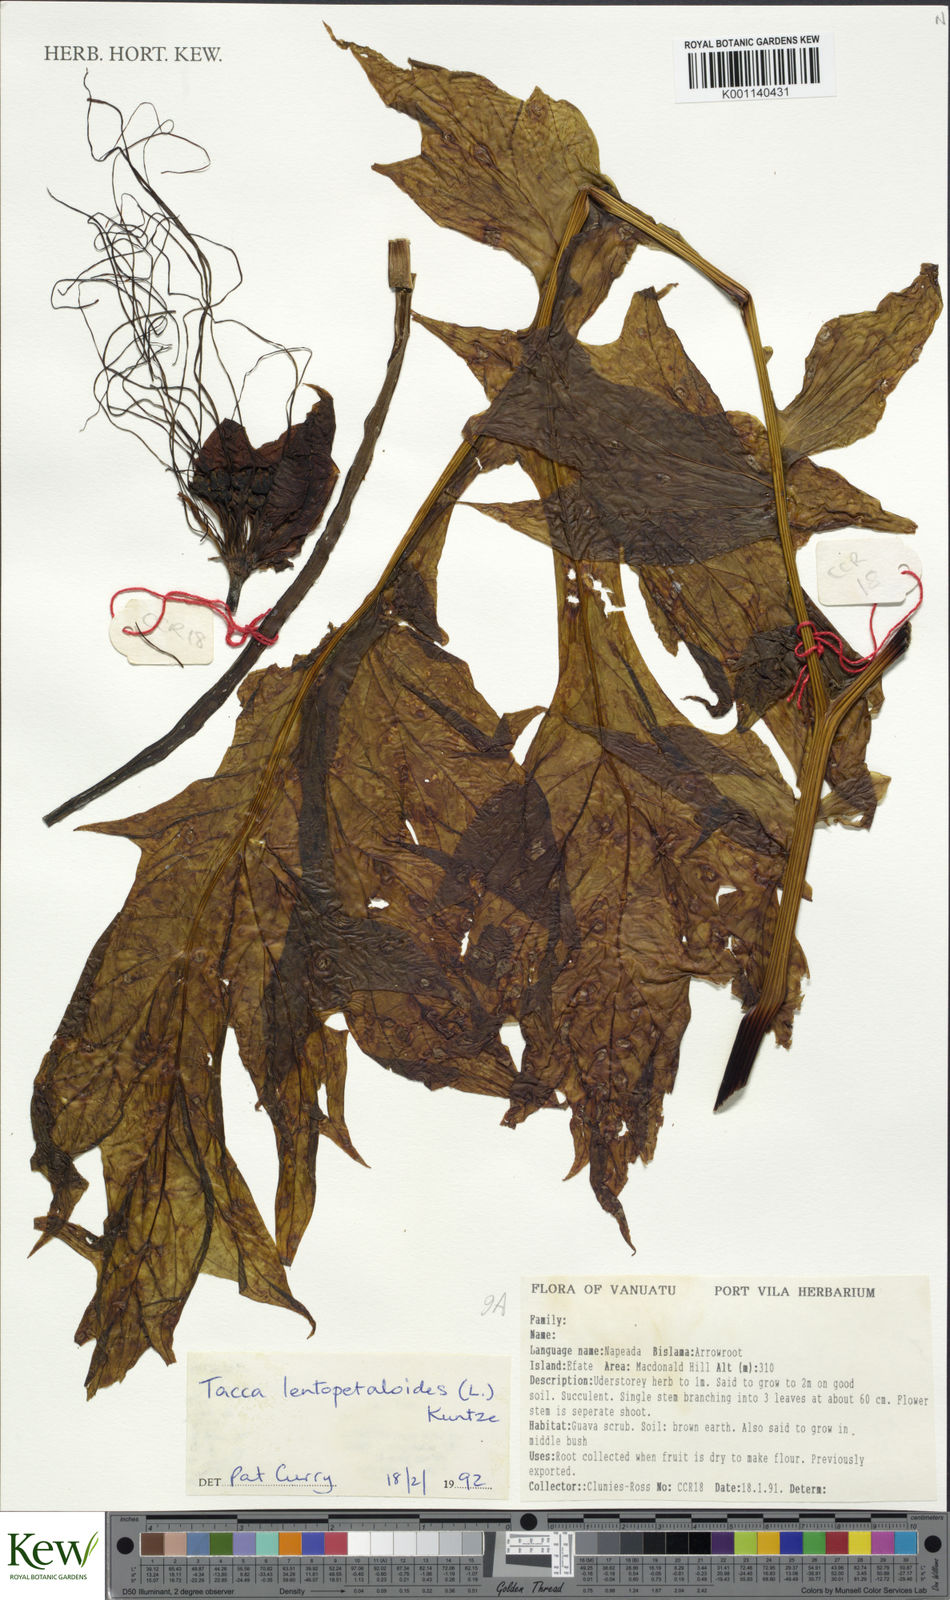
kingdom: Plantae
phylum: Tracheophyta
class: Liliopsida
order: Dioscoreales
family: Dioscoreaceae
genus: Tacca
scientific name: Tacca leontopetaloides
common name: Arrowroot
